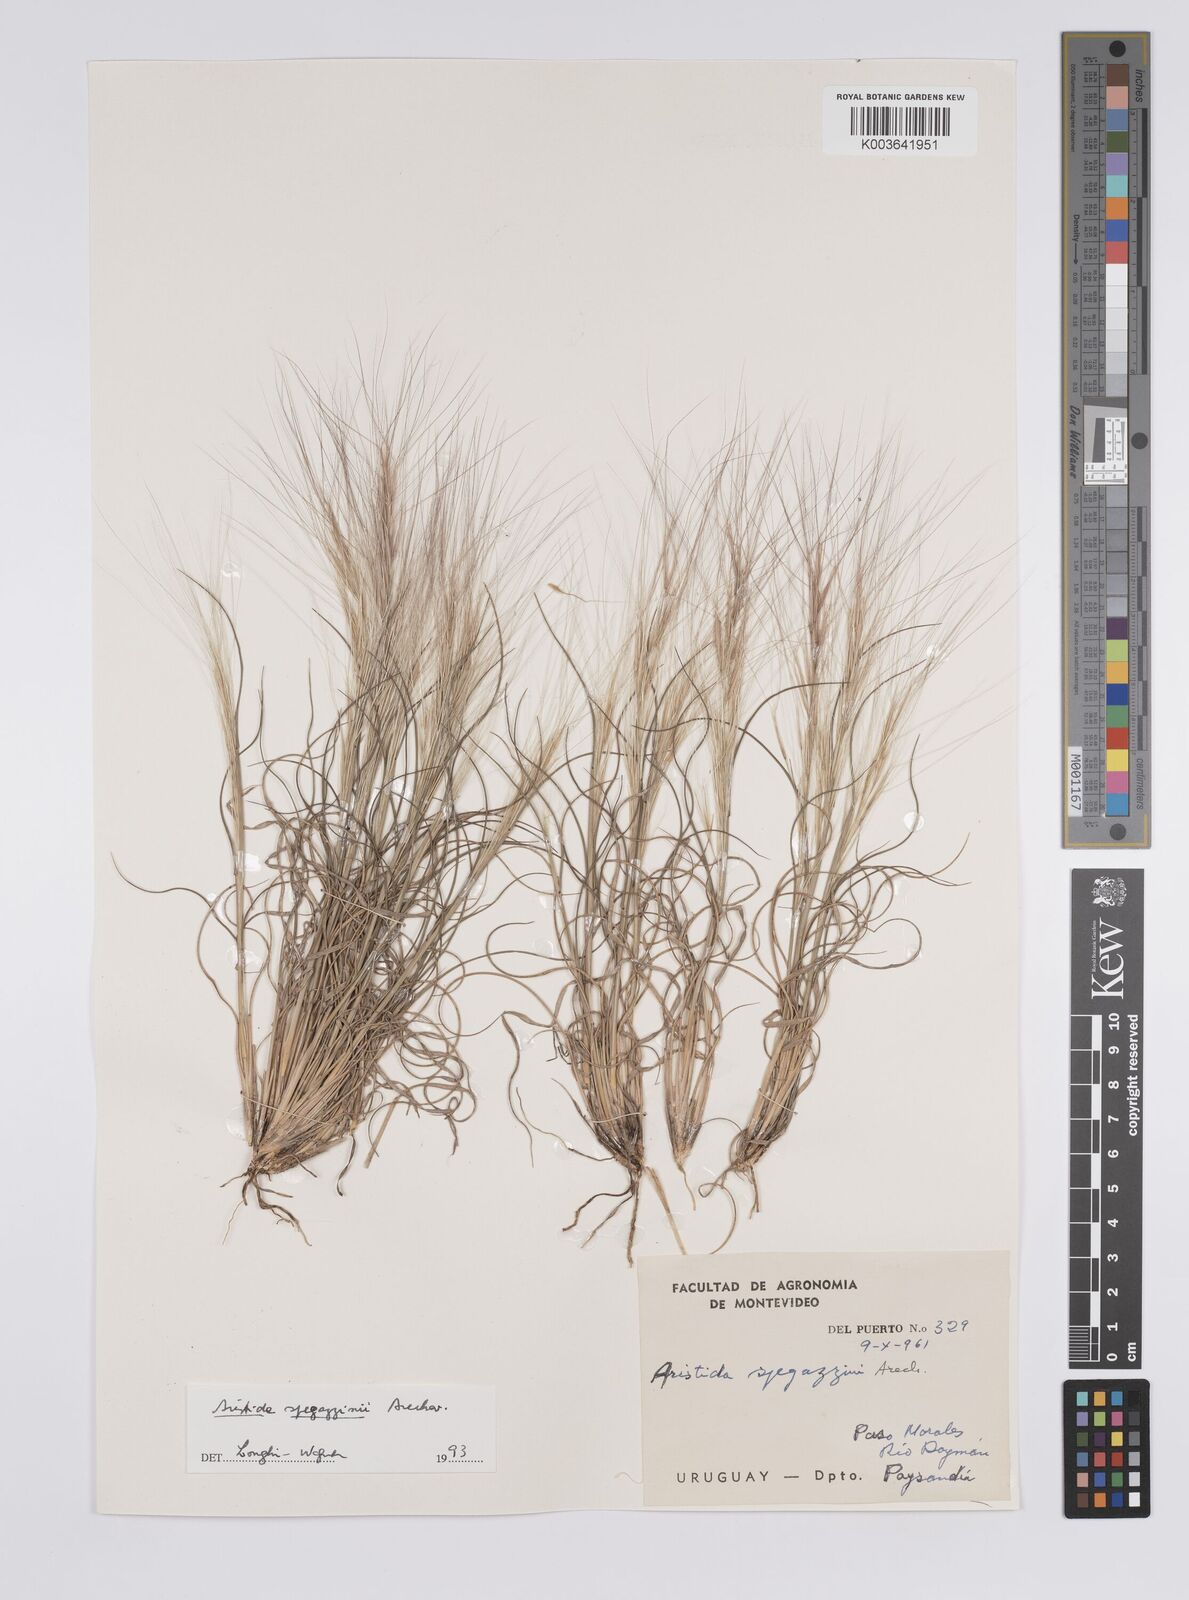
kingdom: Plantae
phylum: Tracheophyta
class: Liliopsida
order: Poales
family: Poaceae
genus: Aristida
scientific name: Aristida spegazzinii
